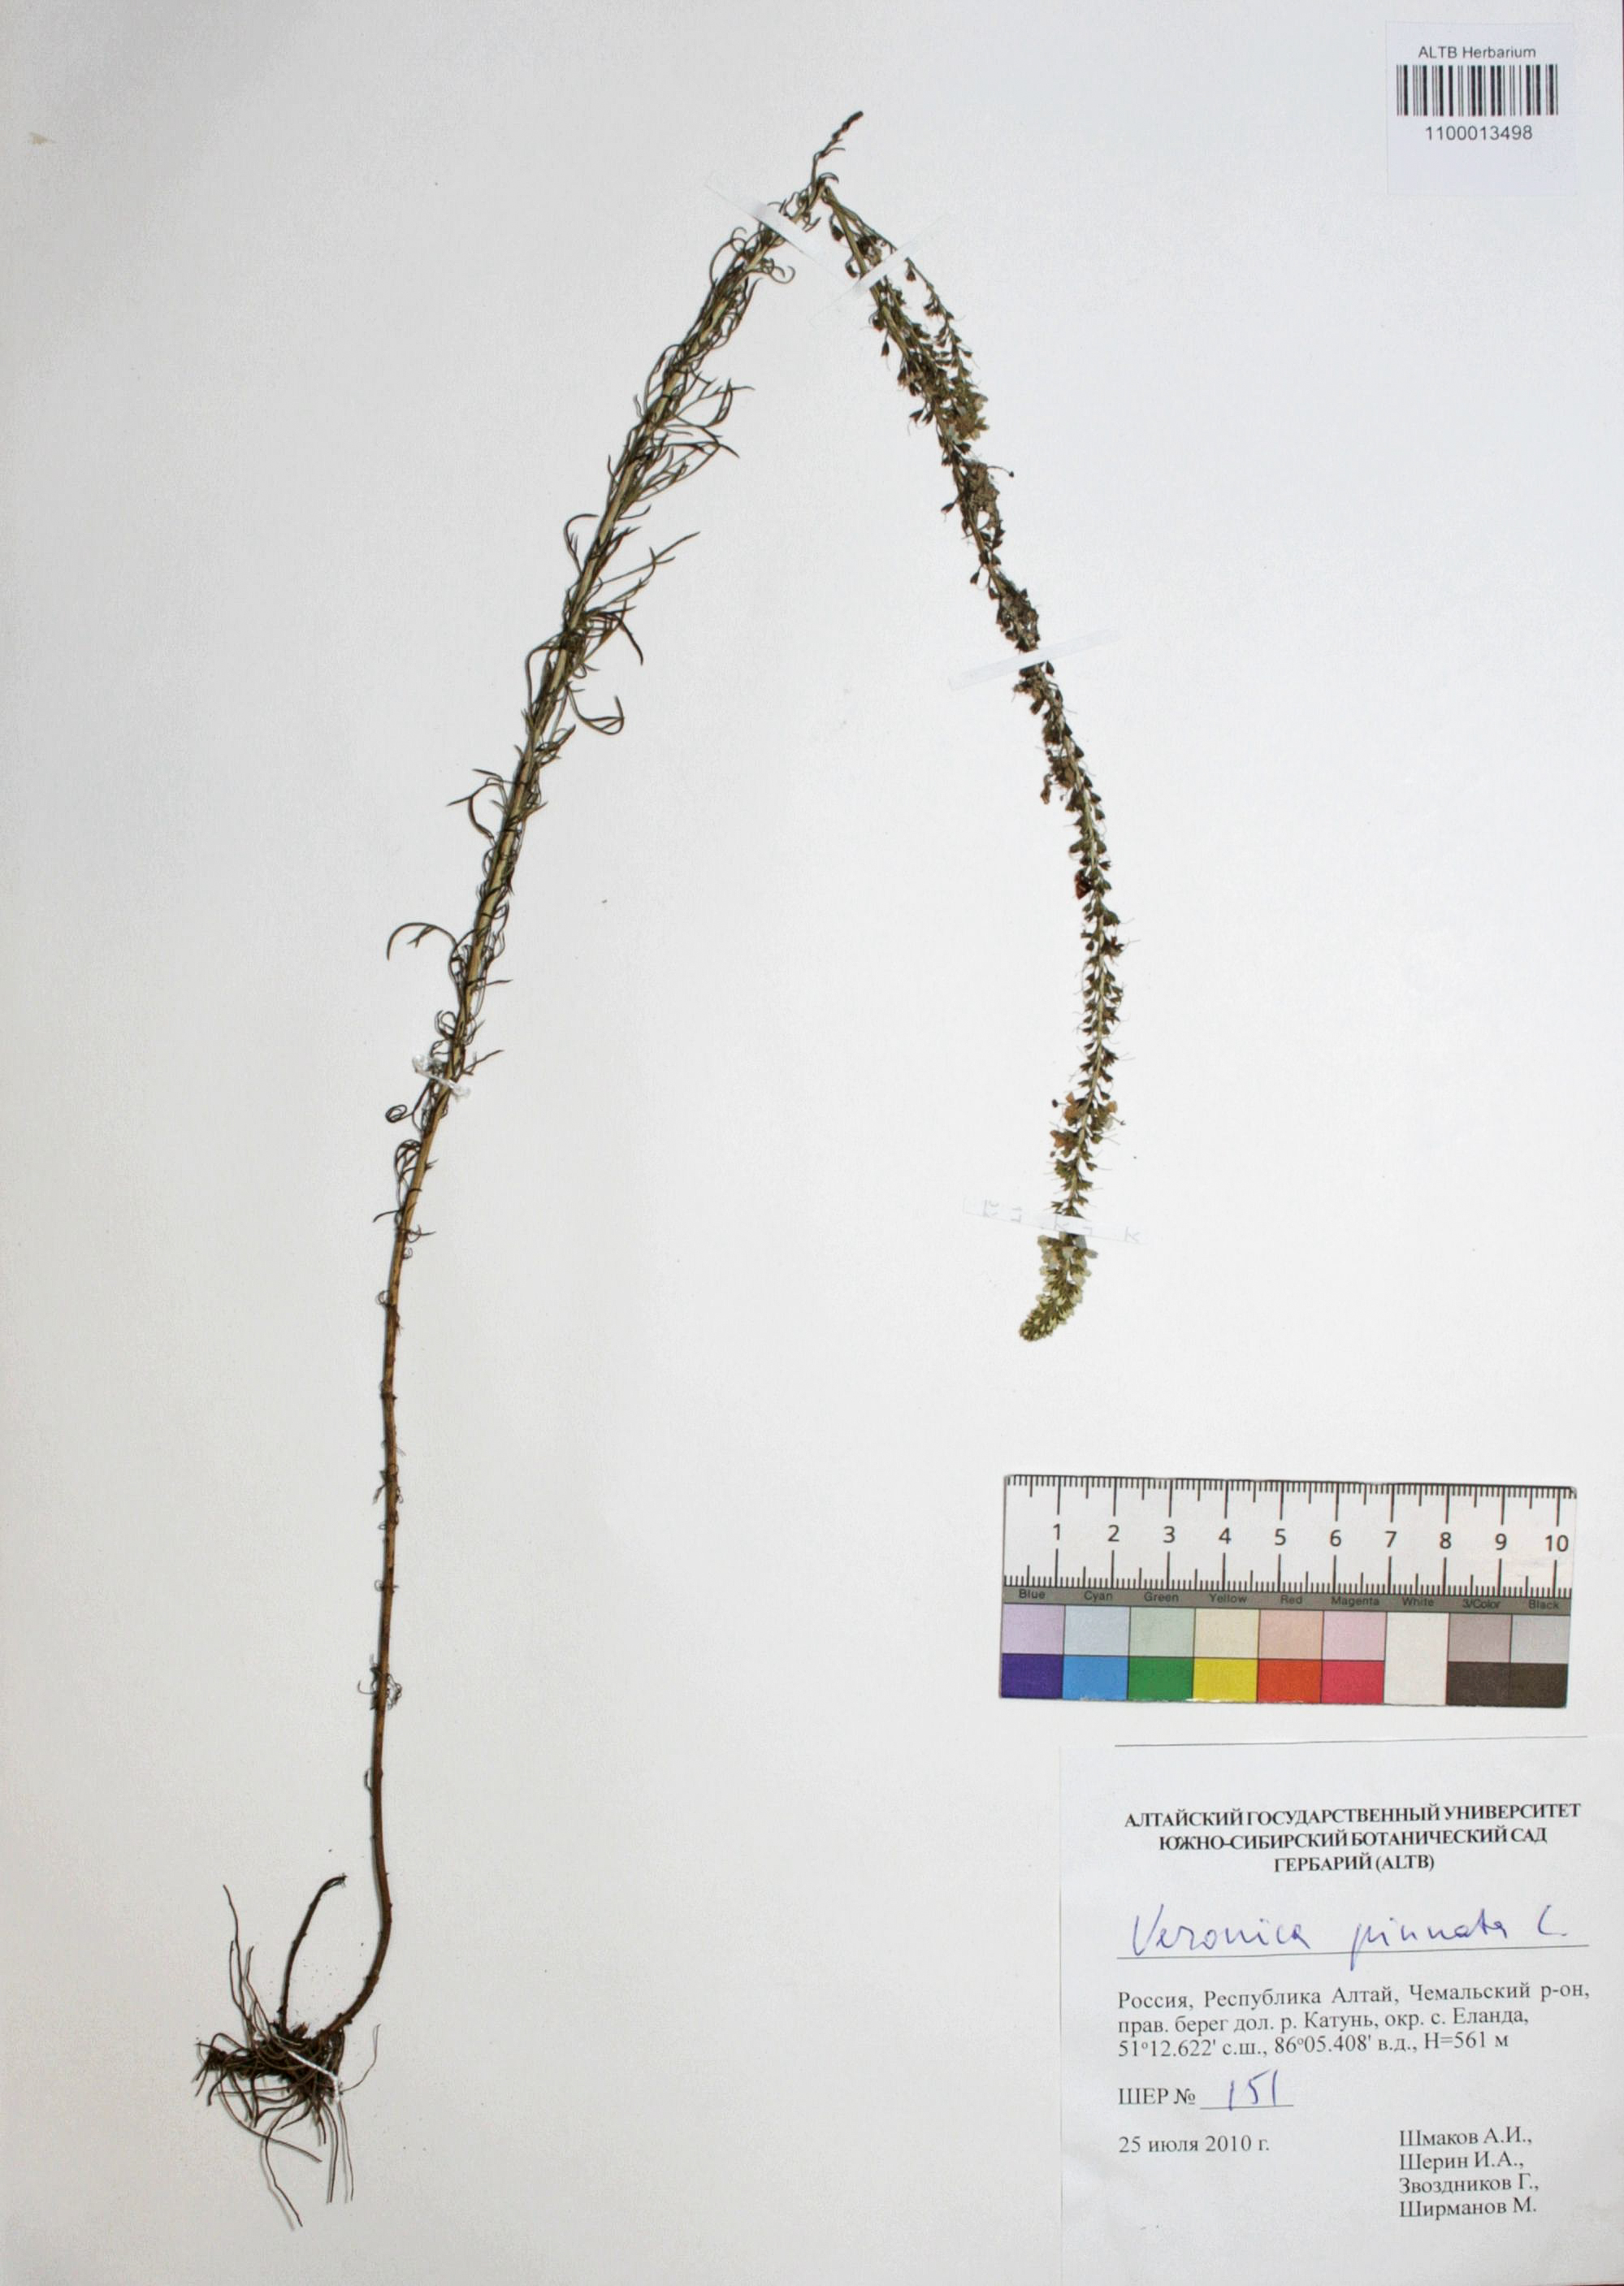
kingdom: Plantae
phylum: Tracheophyta
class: Magnoliopsida
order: Lamiales
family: Plantaginaceae
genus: Veronica
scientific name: Veronica pinnata
